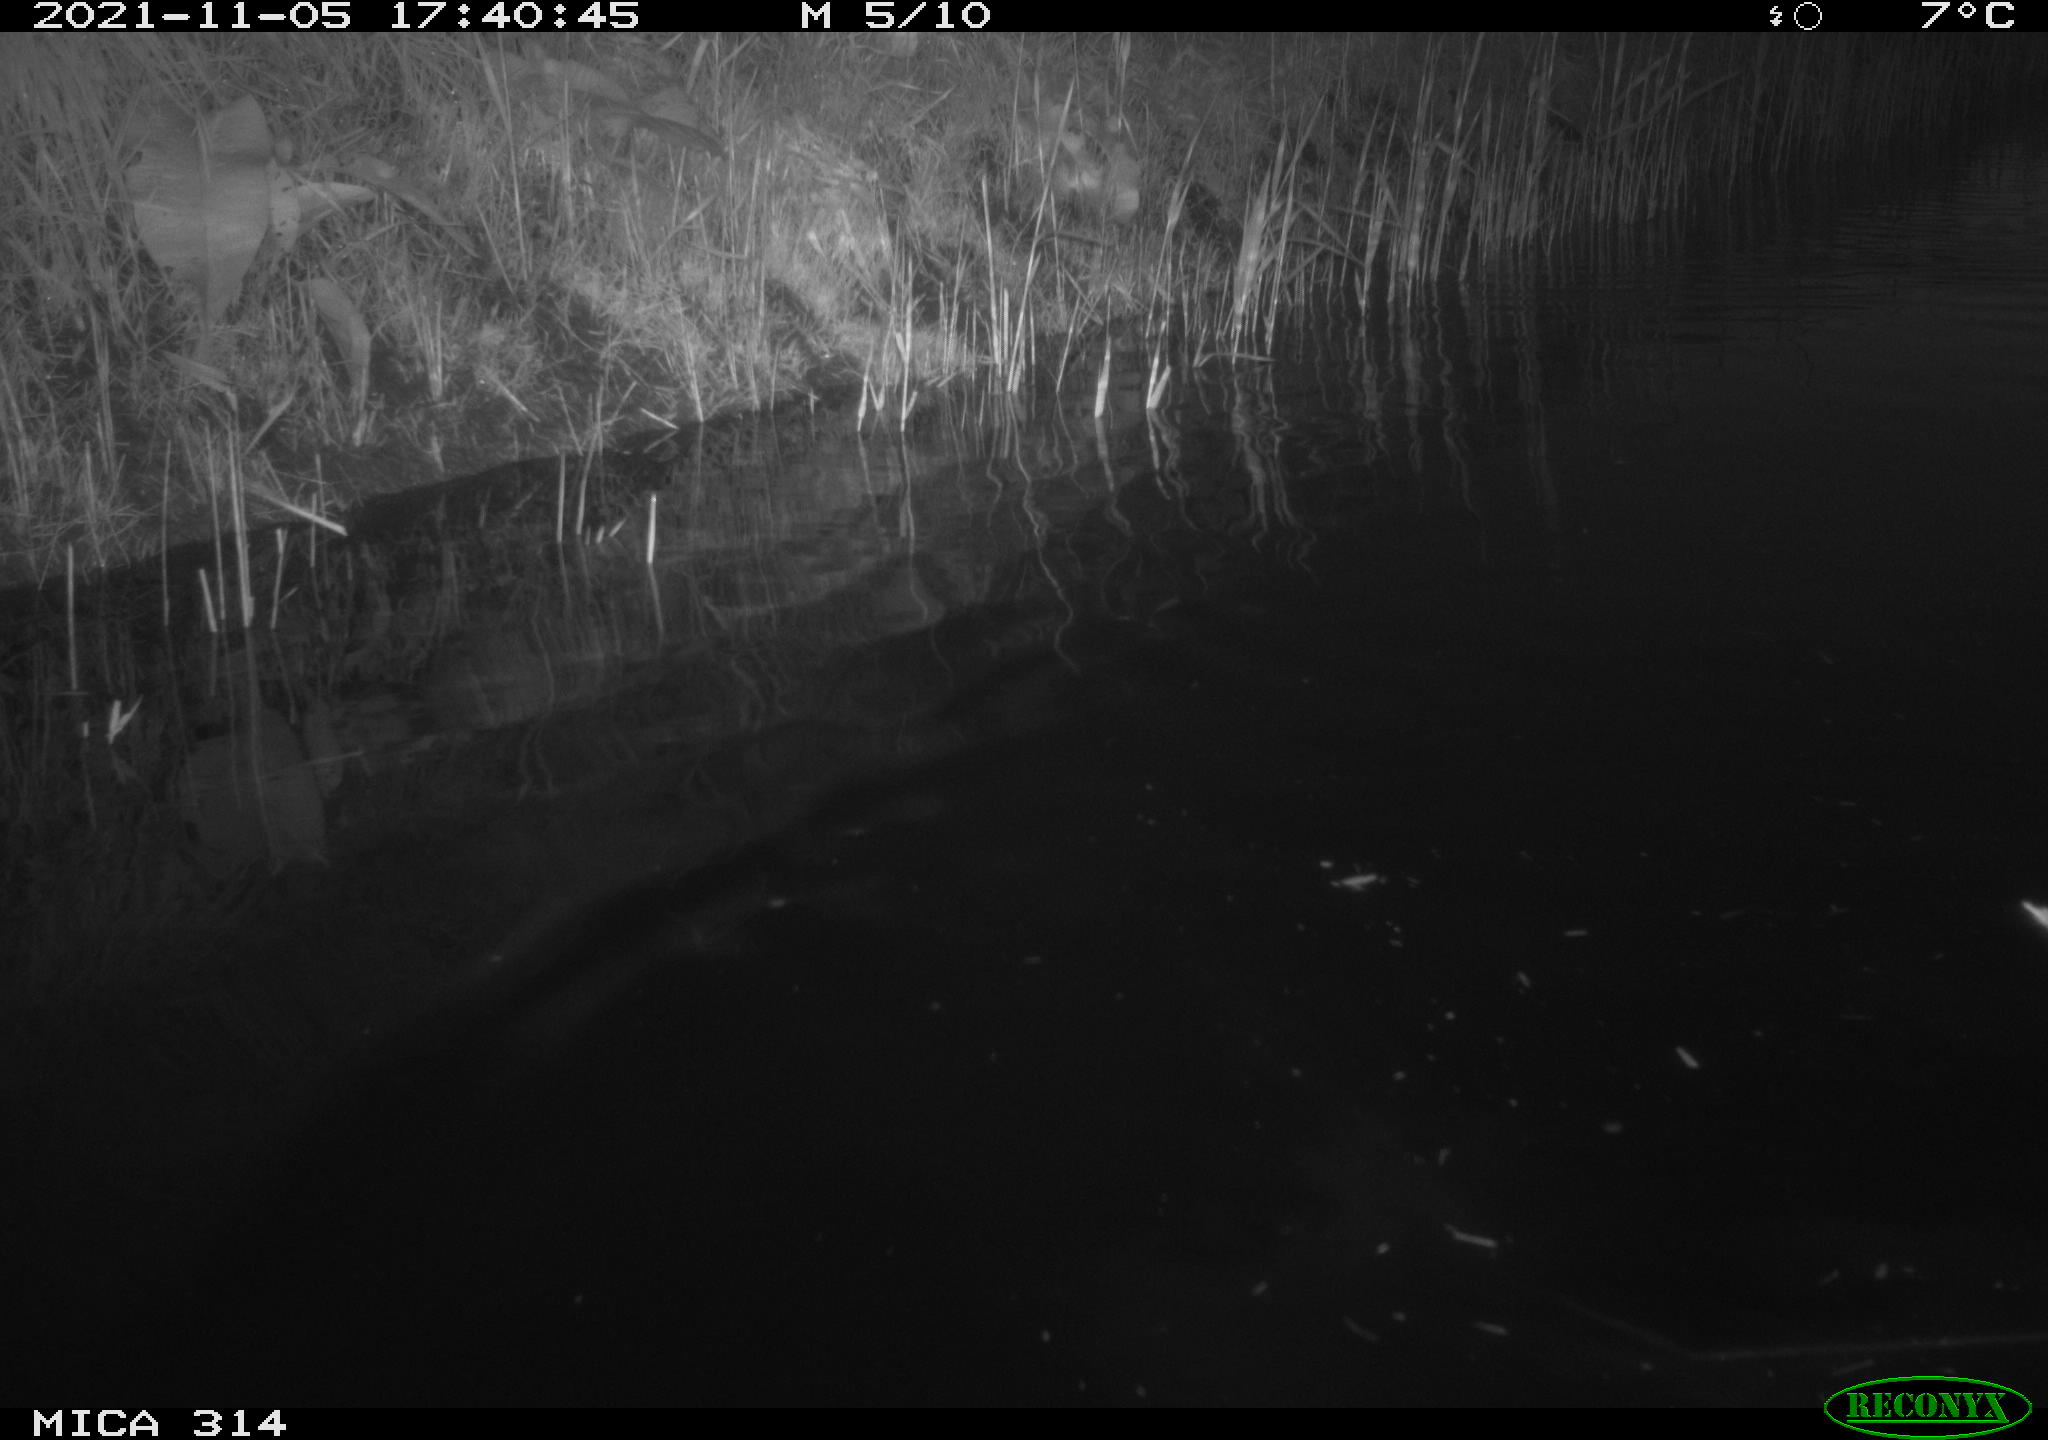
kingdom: Animalia
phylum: Chordata
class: Aves
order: Gruiformes
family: Rallidae
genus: Gallinula
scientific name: Gallinula chloropus
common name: Common moorhen
